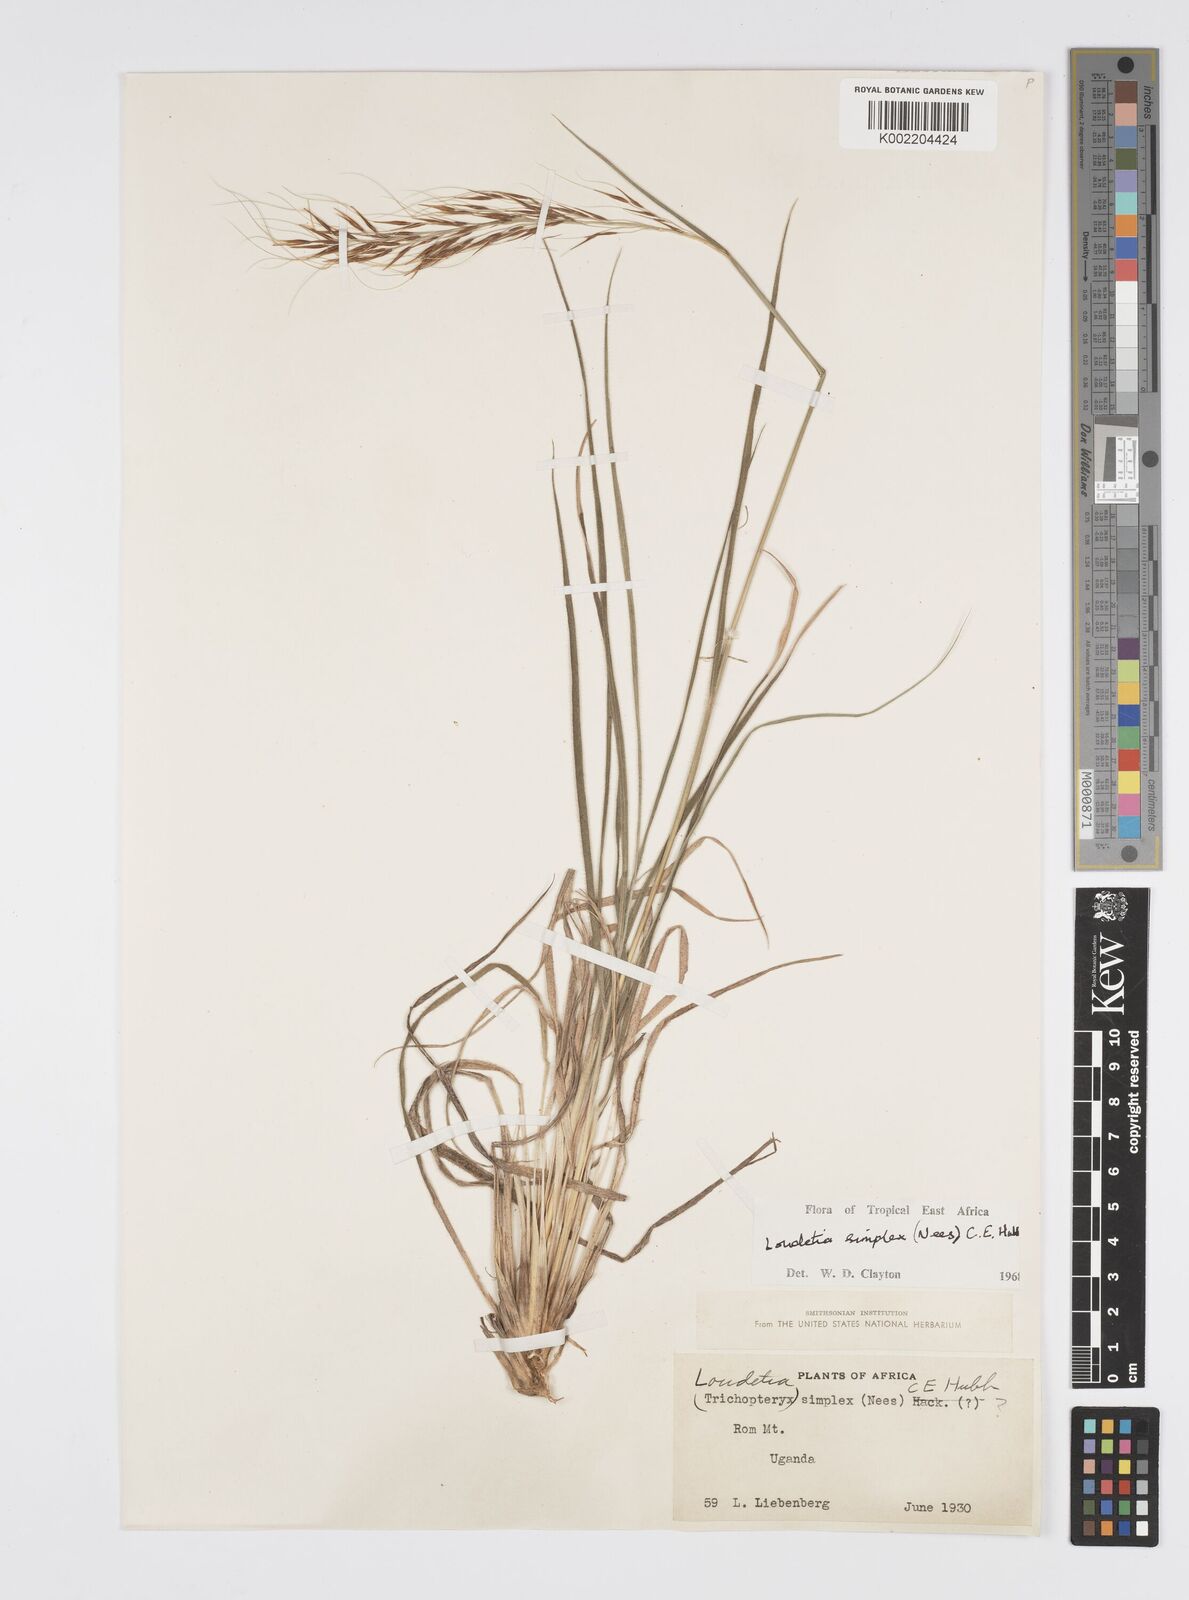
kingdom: Plantae
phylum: Tracheophyta
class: Liliopsida
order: Poales
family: Poaceae
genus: Loudetia
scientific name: Loudetia simplex
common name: Common russet grass
